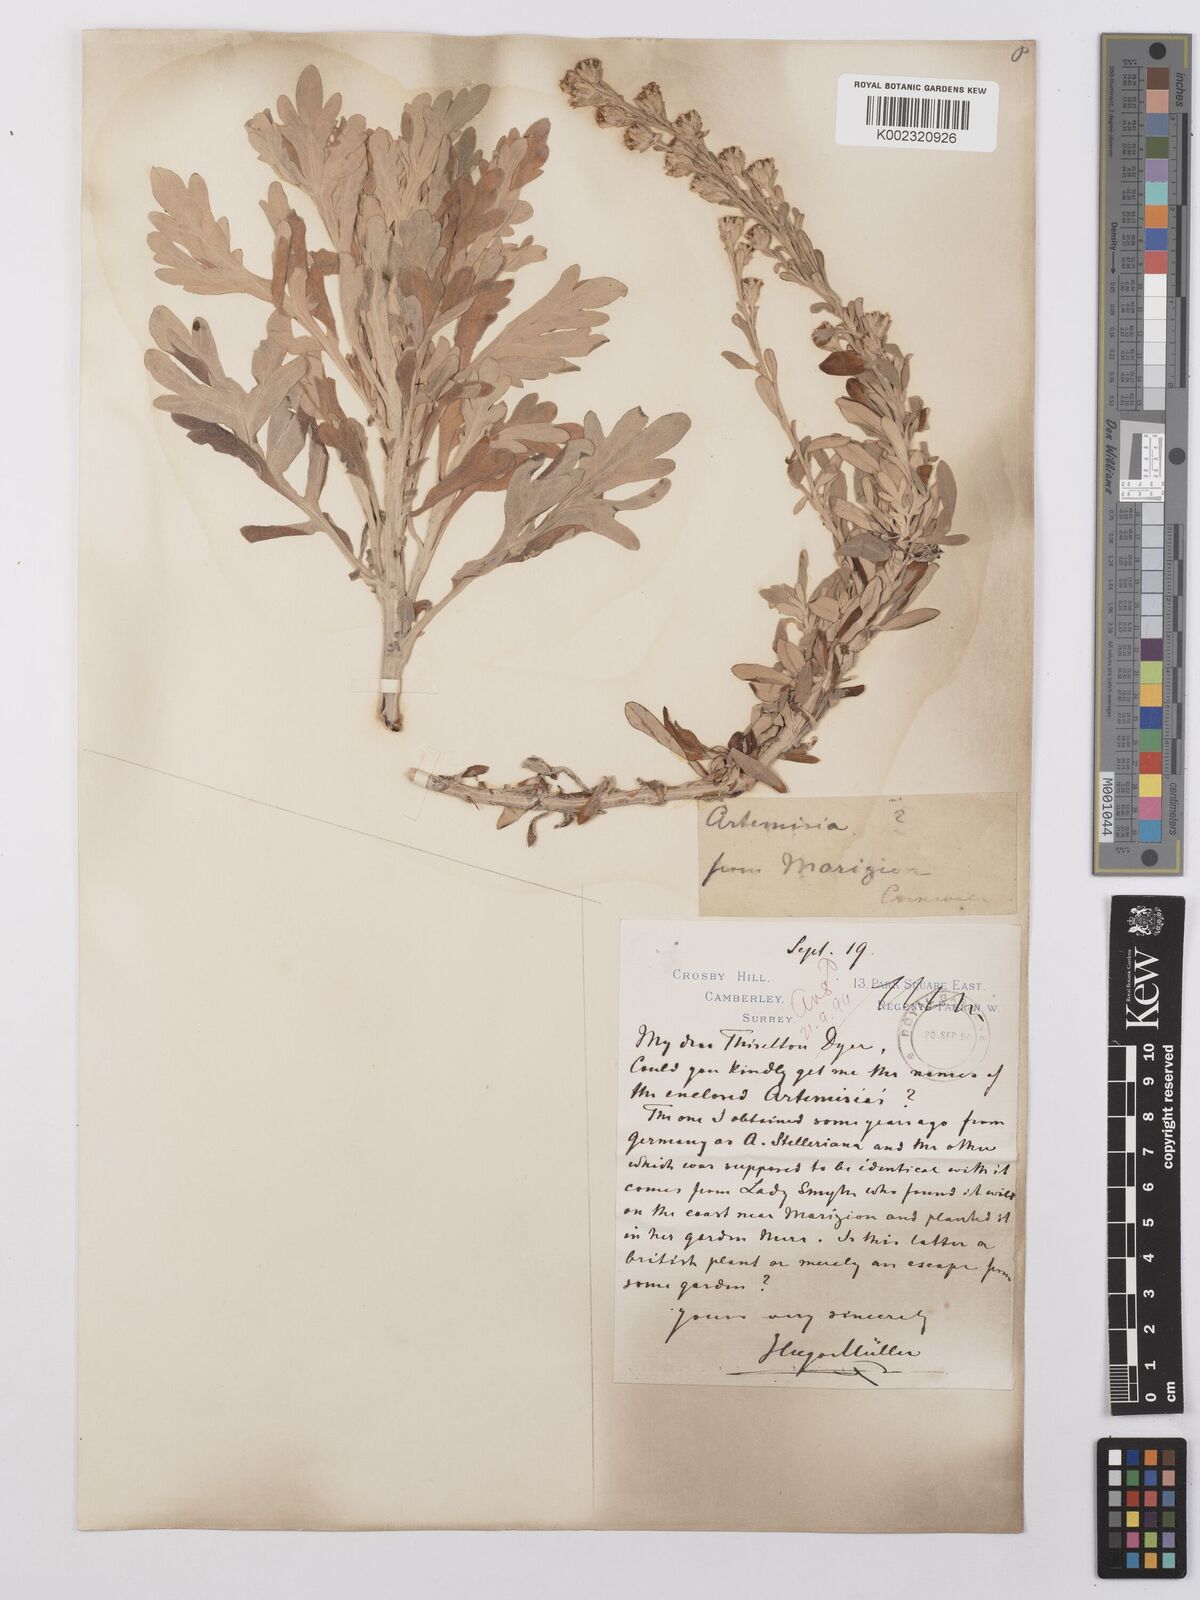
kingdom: Plantae
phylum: Tracheophyta
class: Magnoliopsida
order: Asterales
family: Asteraceae
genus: Artemisia
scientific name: Artemisia stelleriana
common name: Beach wormwood
